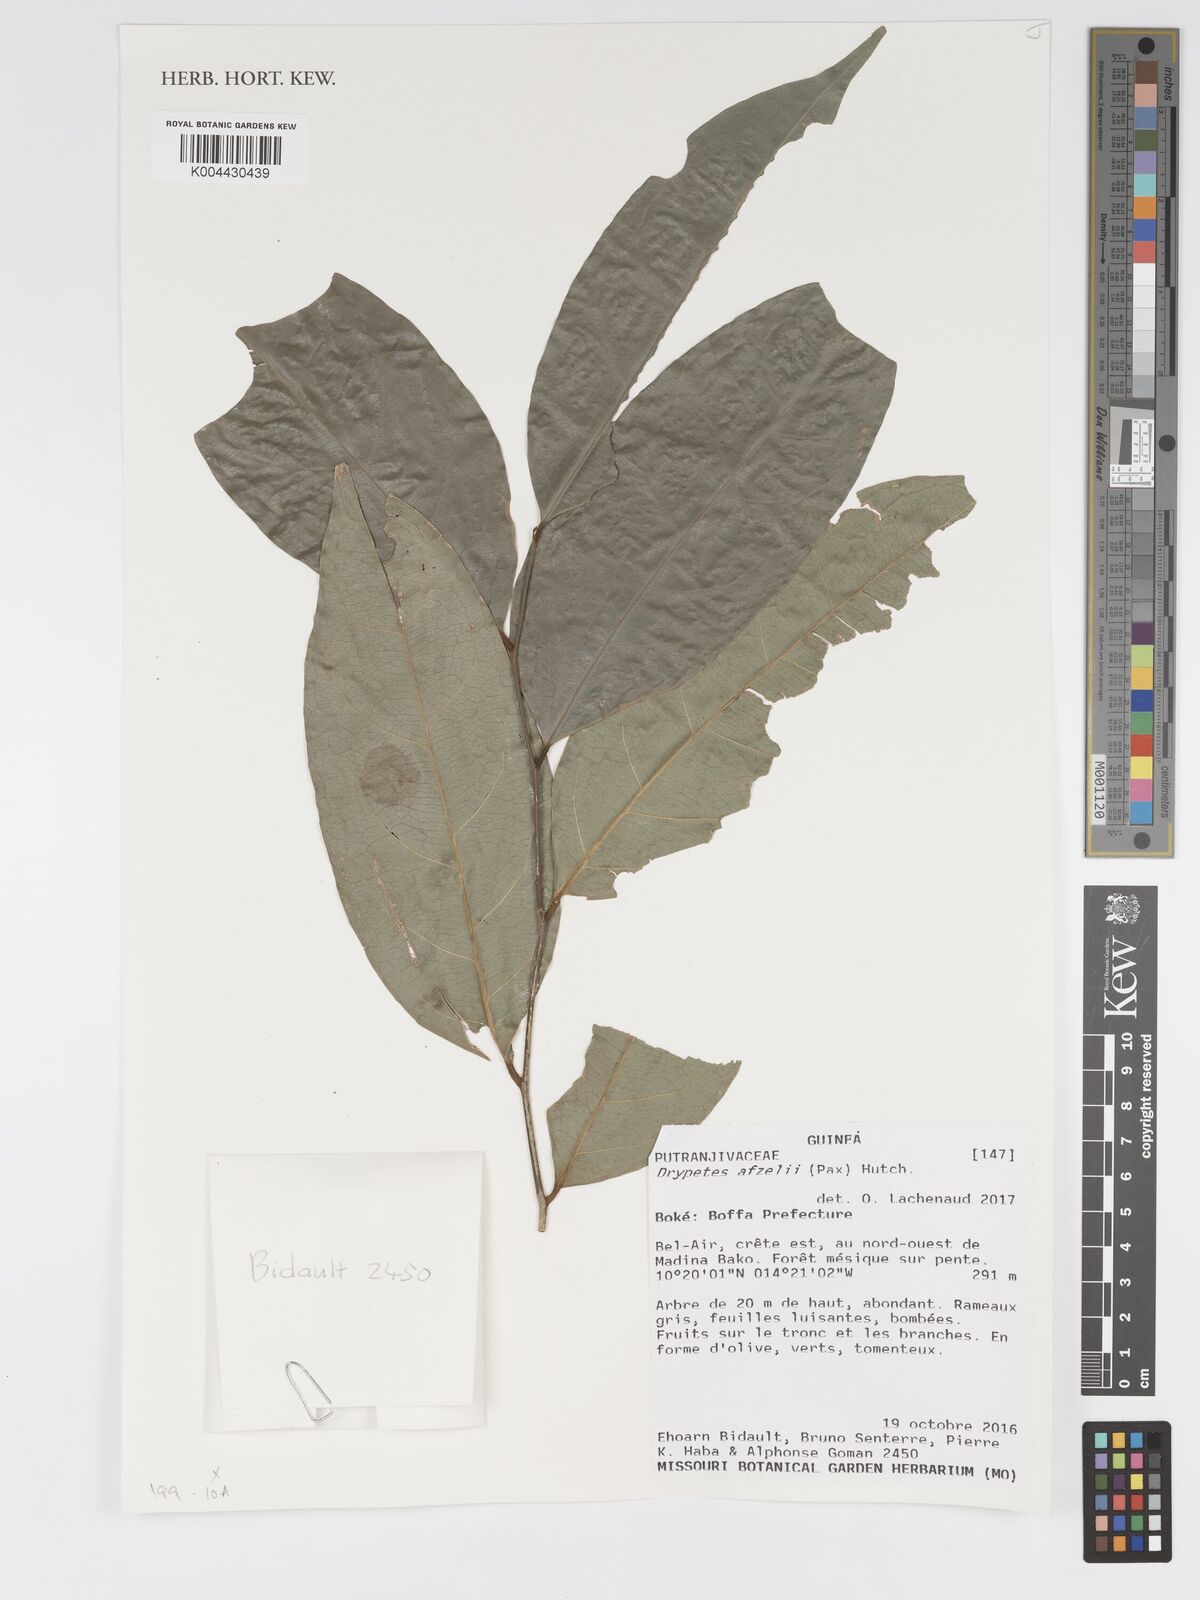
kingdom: Plantae
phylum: Tracheophyta
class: Magnoliopsida
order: Malpighiales
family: Putranjivaceae
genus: Drypetes
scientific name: Drypetes afzelii
